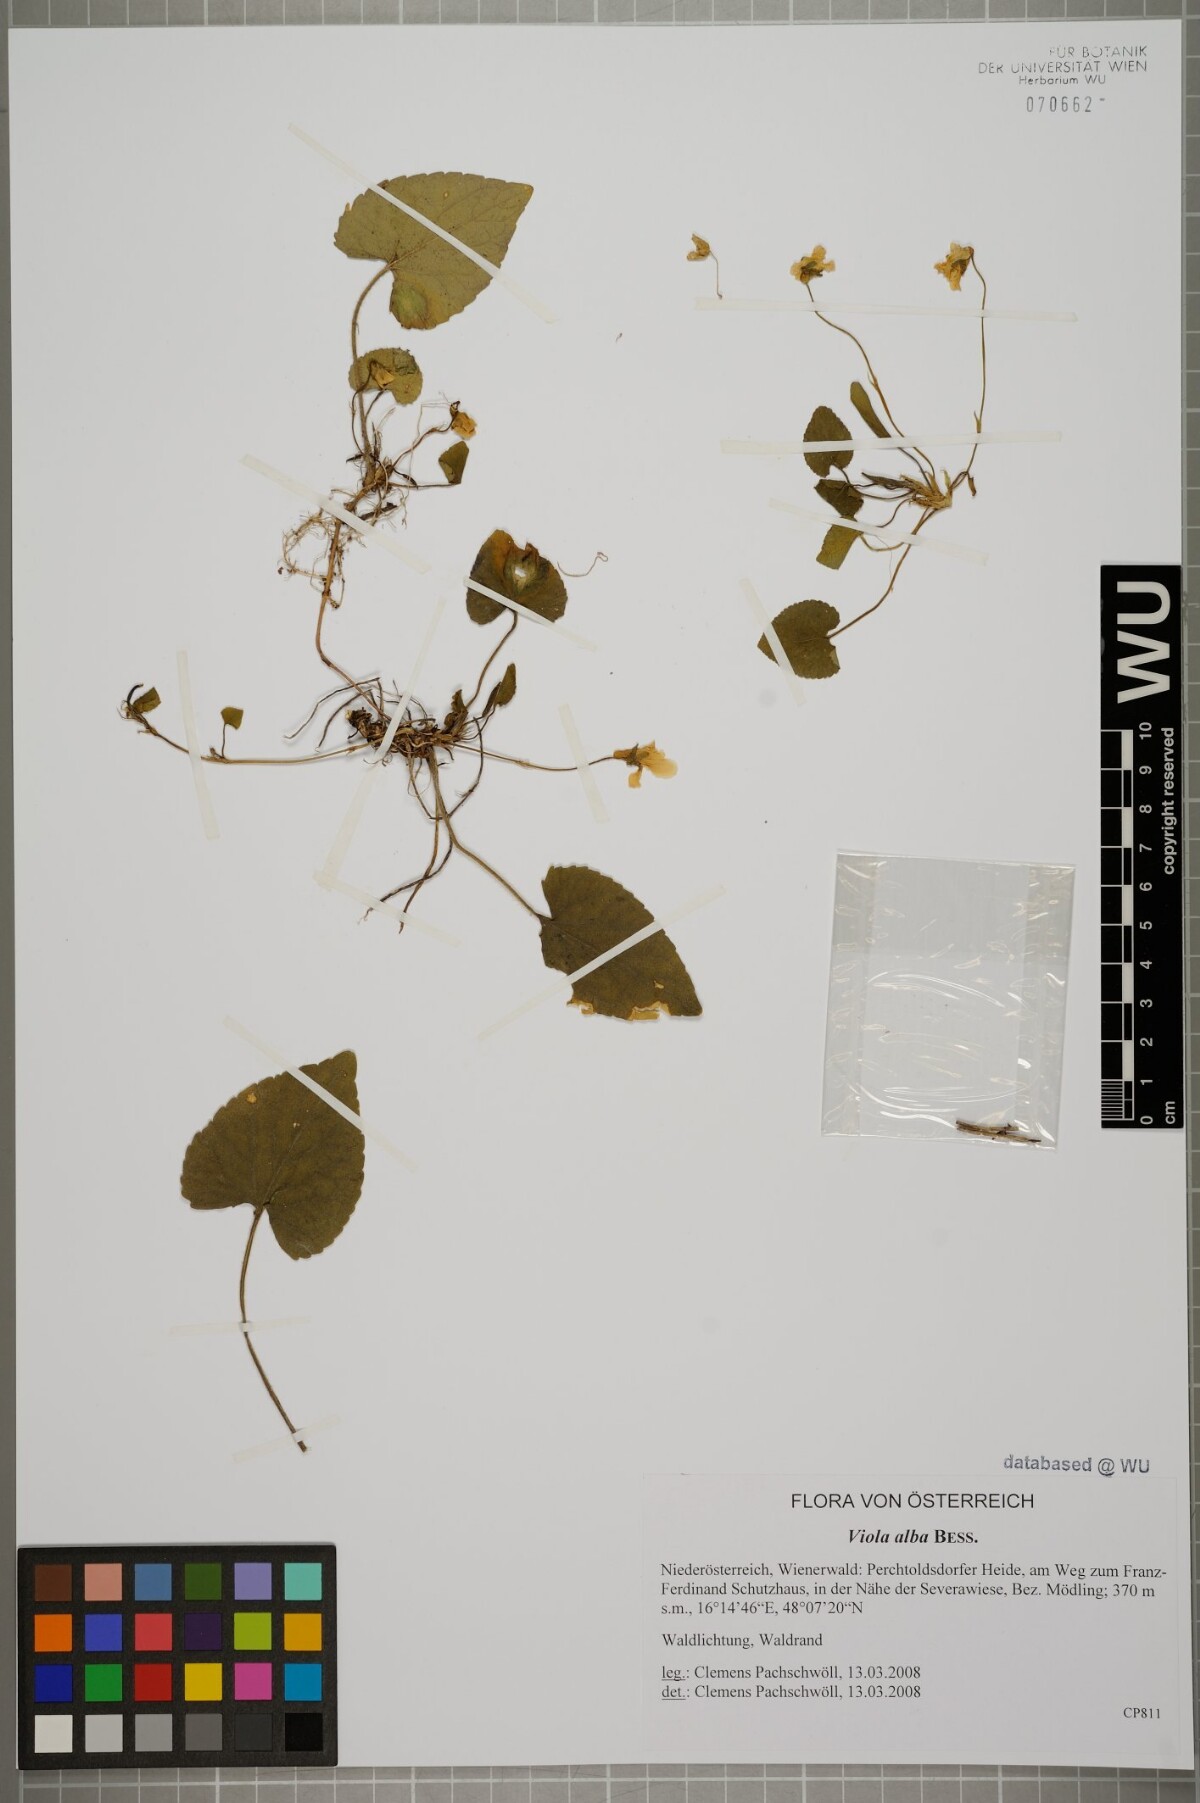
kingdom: Plantae
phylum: Tracheophyta
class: Magnoliopsida
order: Malpighiales
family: Violaceae
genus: Viola
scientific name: Viola alba
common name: White violet
